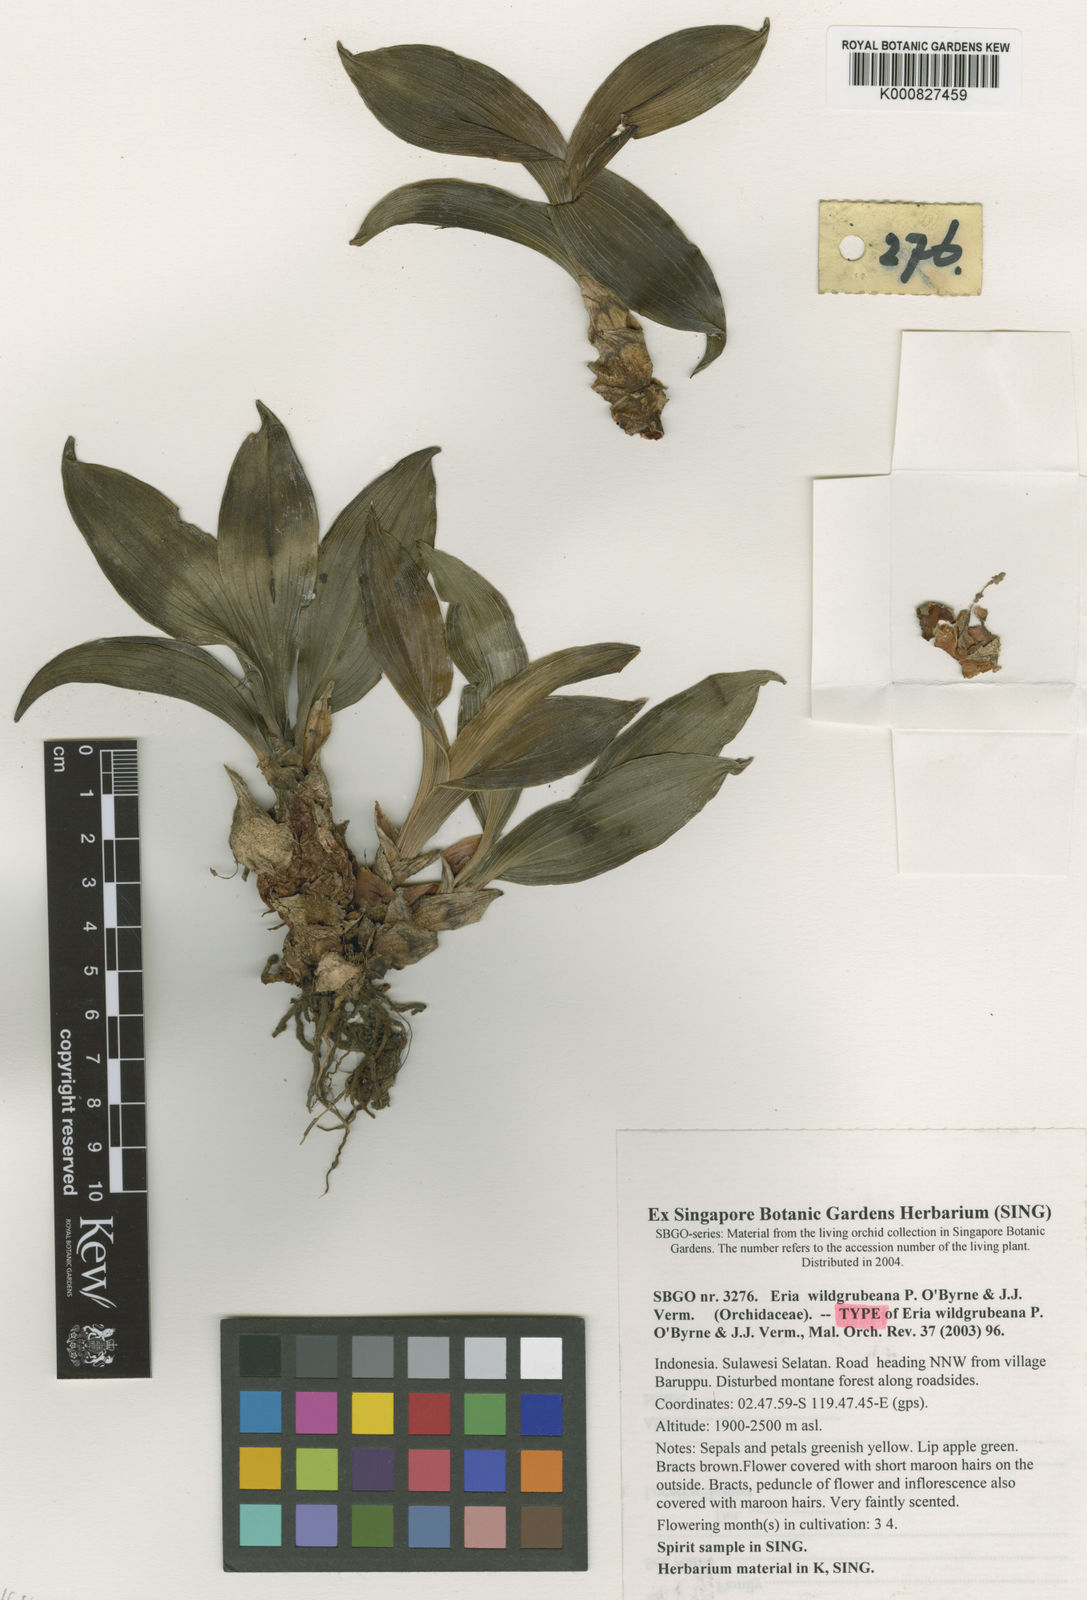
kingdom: Plantae
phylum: Tracheophyta
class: Liliopsida
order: Asparagales
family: Orchidaceae
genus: Pinalia
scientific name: Pinalia wildgrubeana
